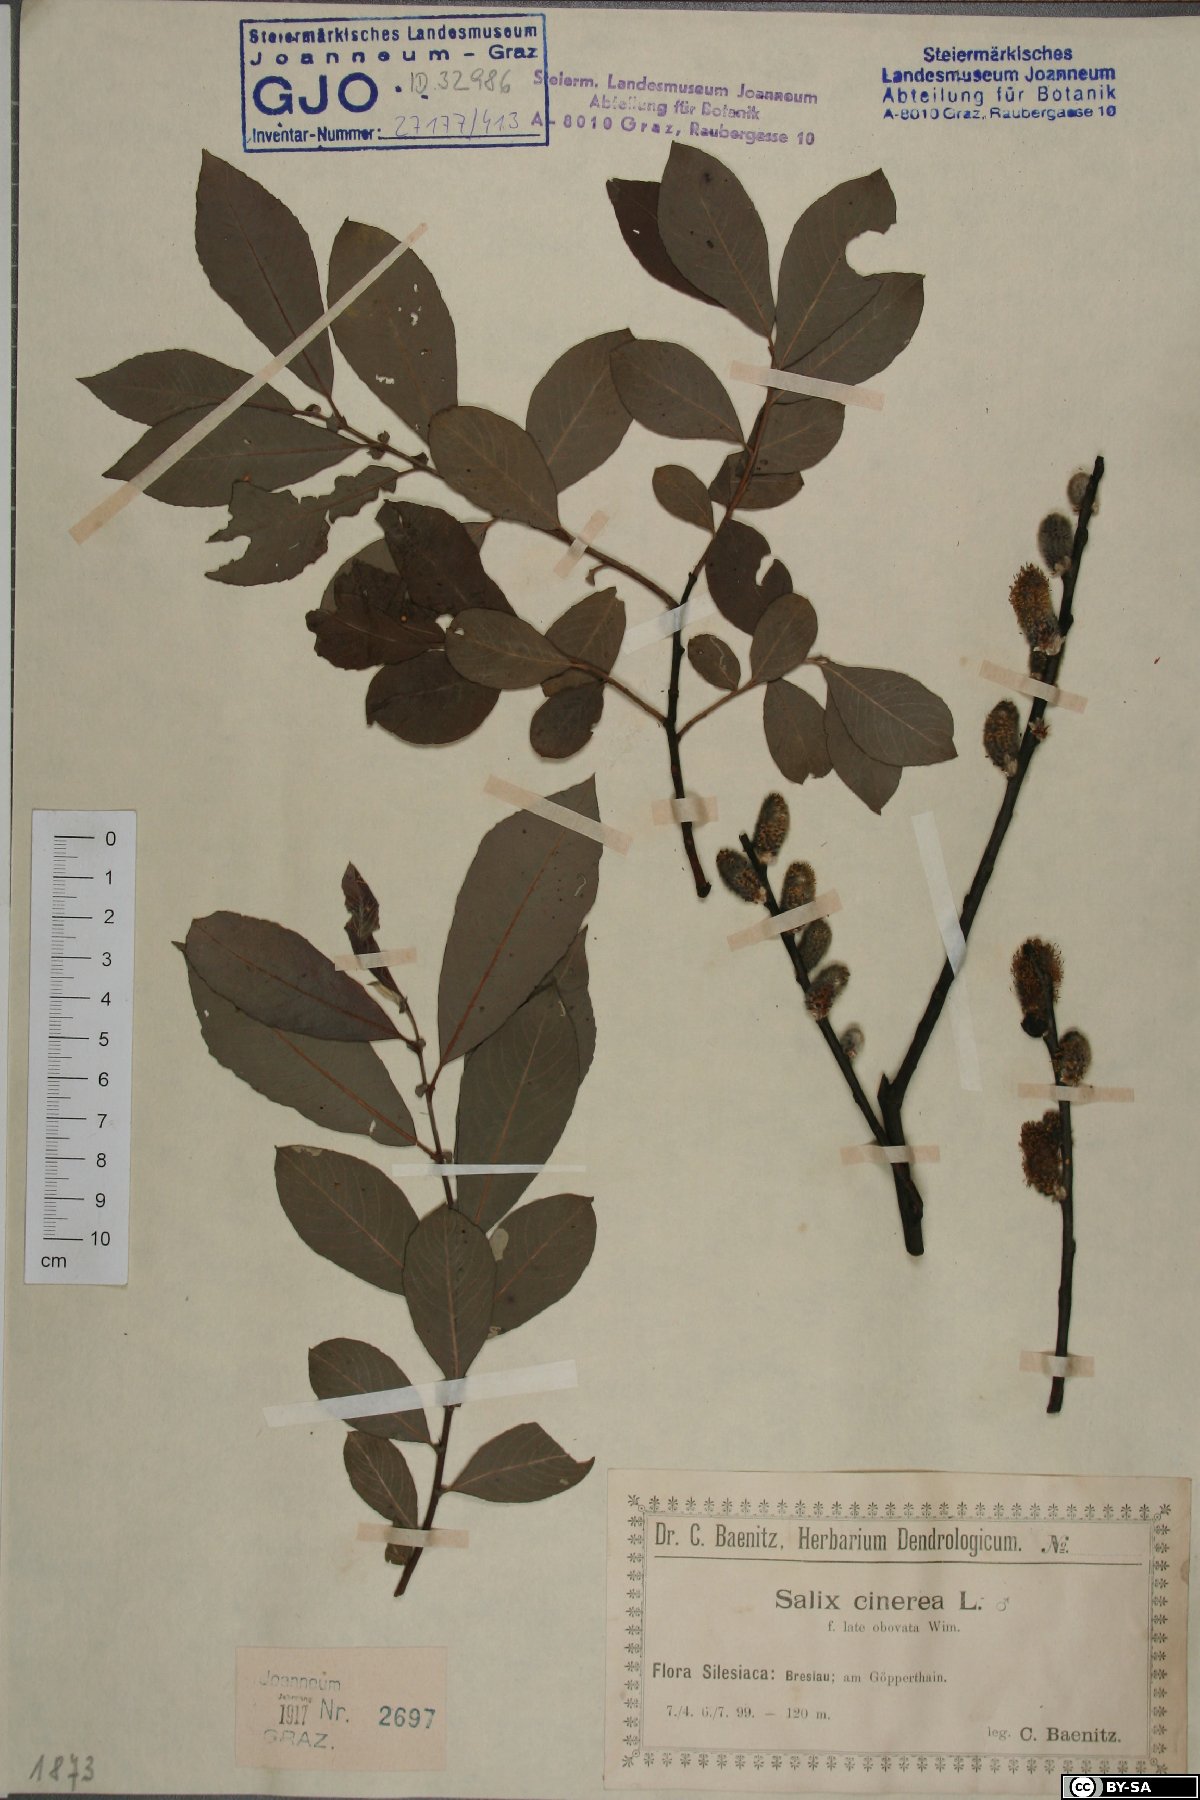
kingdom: Plantae
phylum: Tracheophyta
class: Magnoliopsida
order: Malpighiales
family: Salicaceae
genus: Salix
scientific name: Salix cinerea
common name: Common sallow
